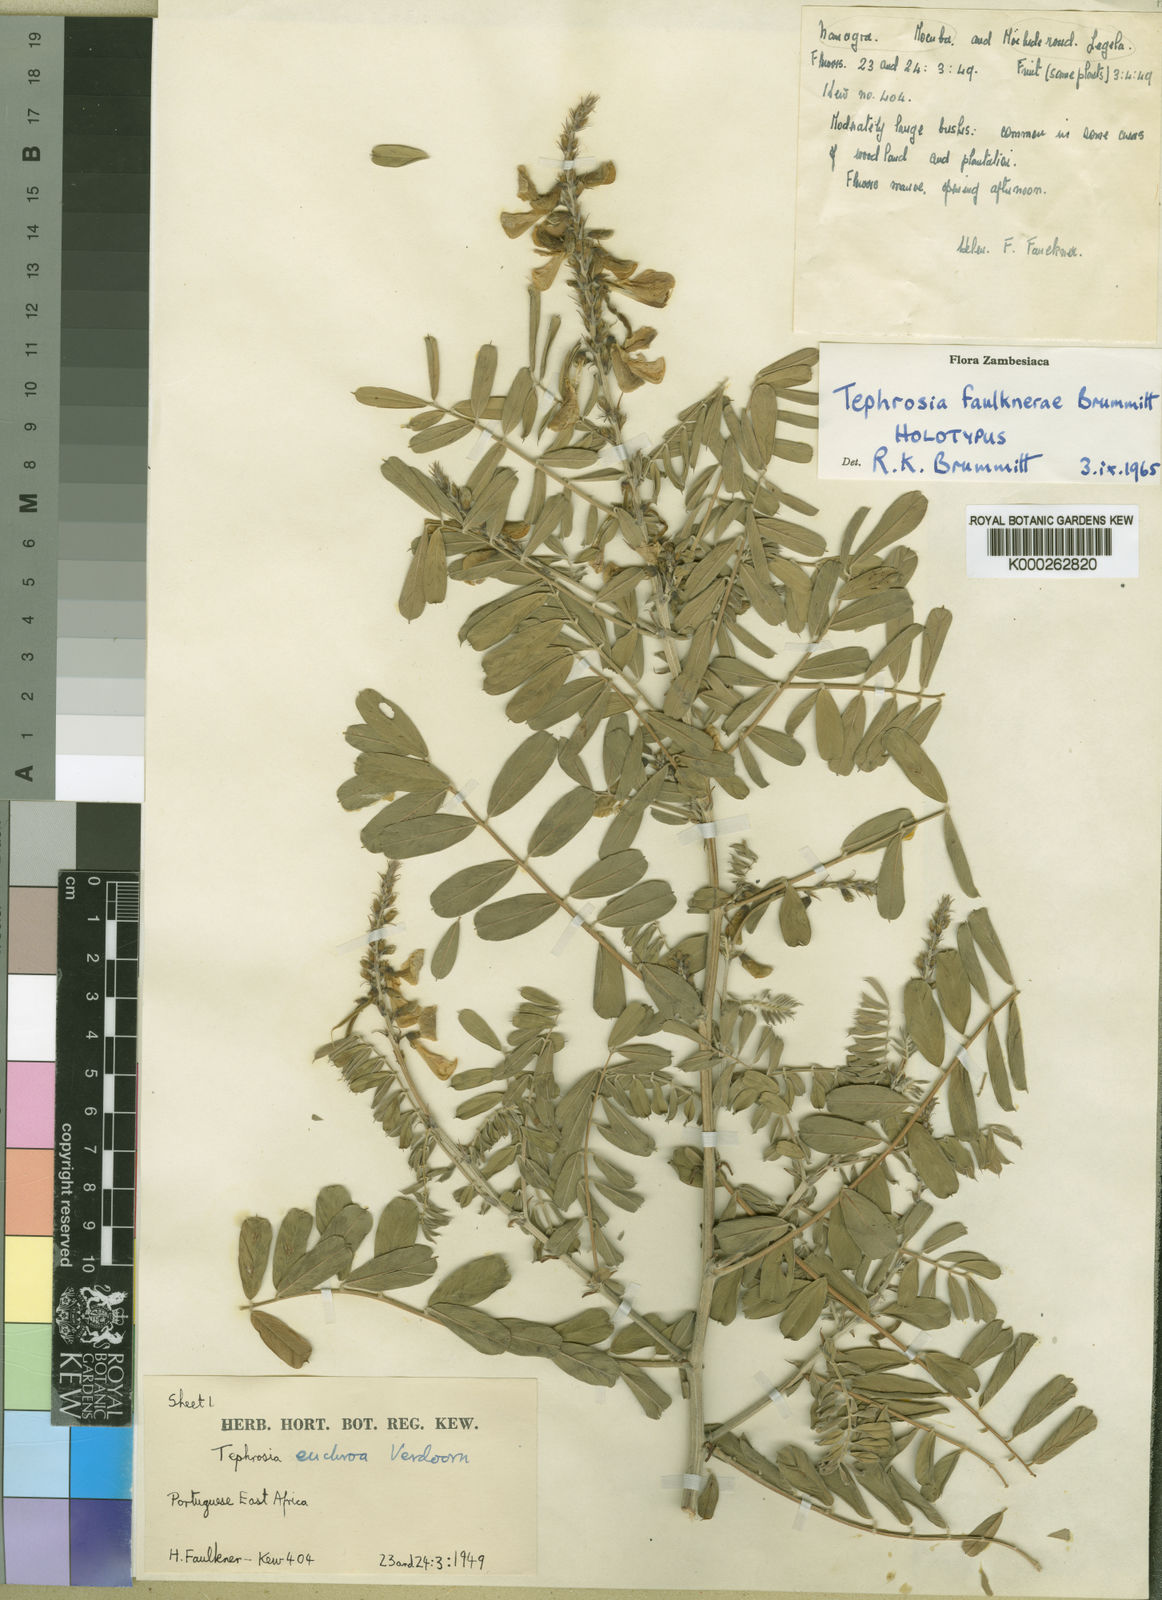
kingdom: Plantae
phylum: Tracheophyta
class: Magnoliopsida
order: Fabales
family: Fabaceae
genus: Tephrosia
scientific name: Tephrosia faulknerae
